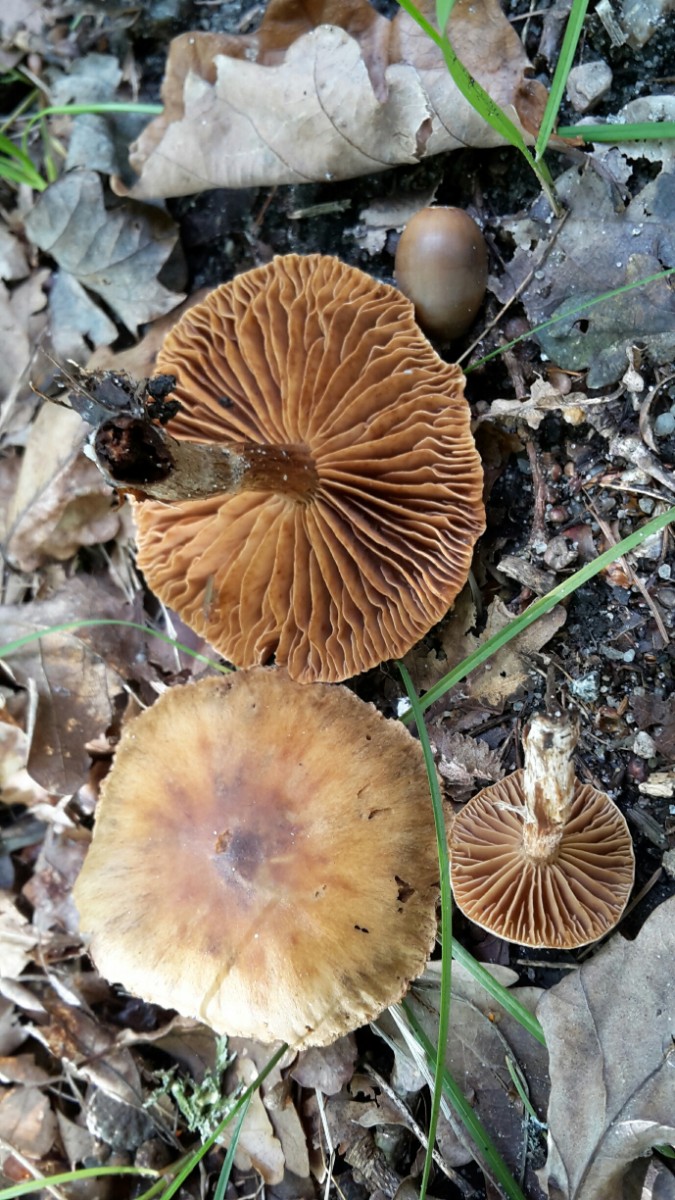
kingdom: Fungi
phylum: Basidiomycota
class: Agaricomycetes
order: Agaricales
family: Cortinariaceae
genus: Cortinarius
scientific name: Cortinarius hinnuleus
